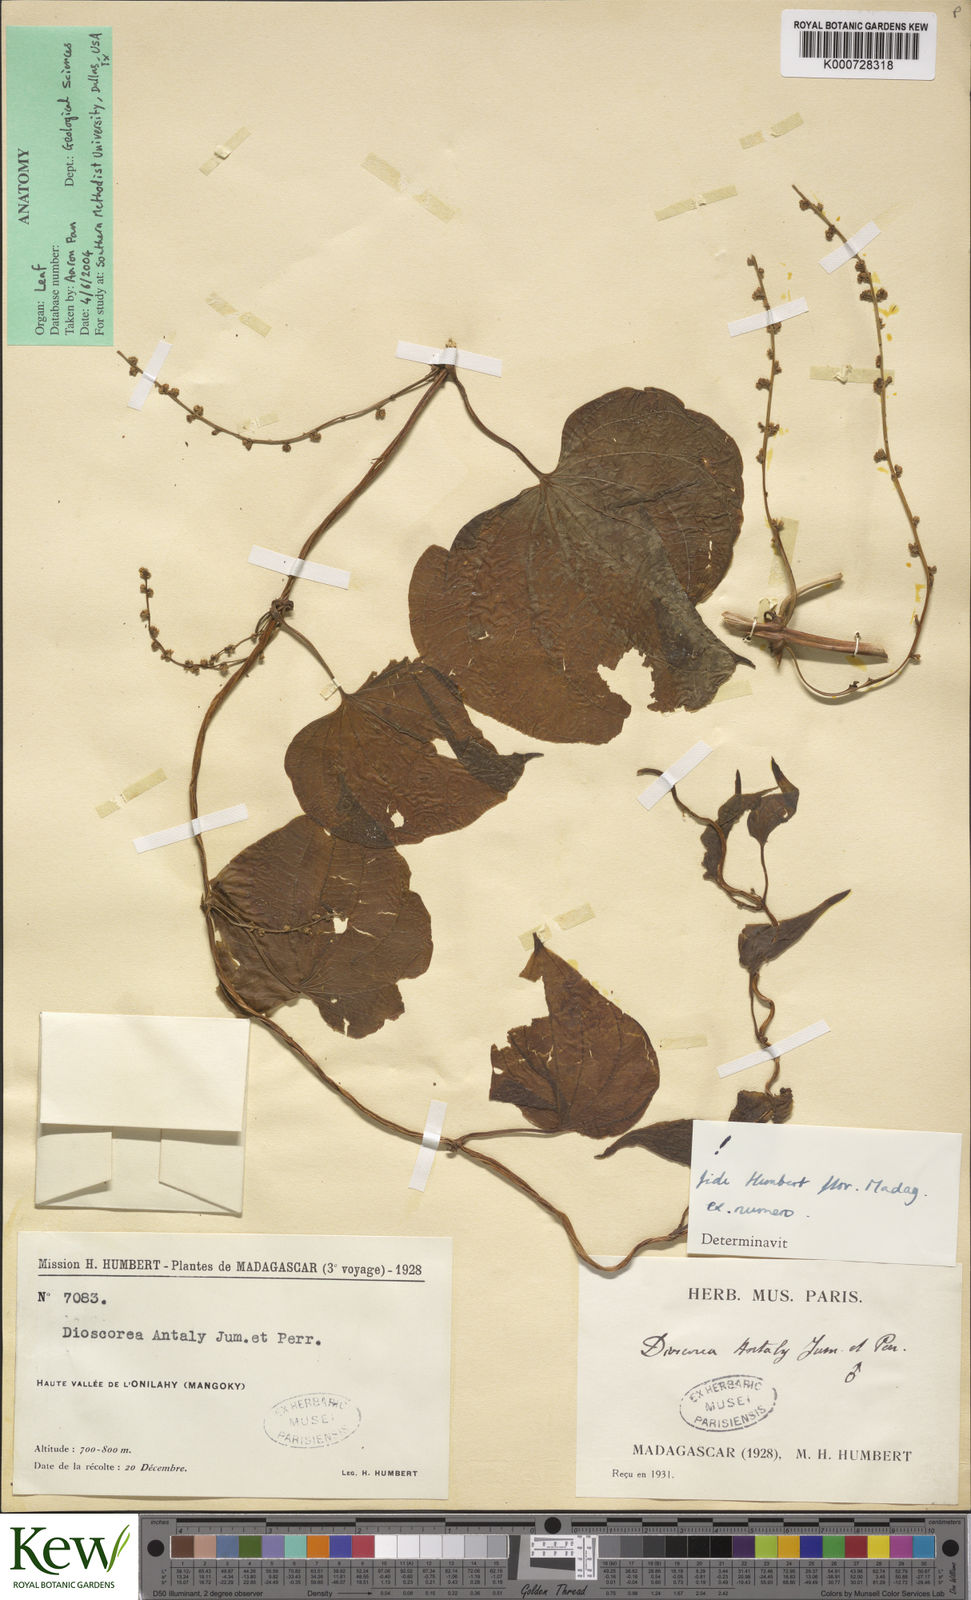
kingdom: Plantae
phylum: Tracheophyta
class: Liliopsida
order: Dioscoreales
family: Dioscoreaceae
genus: Dioscorea
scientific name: Dioscorea antaly
